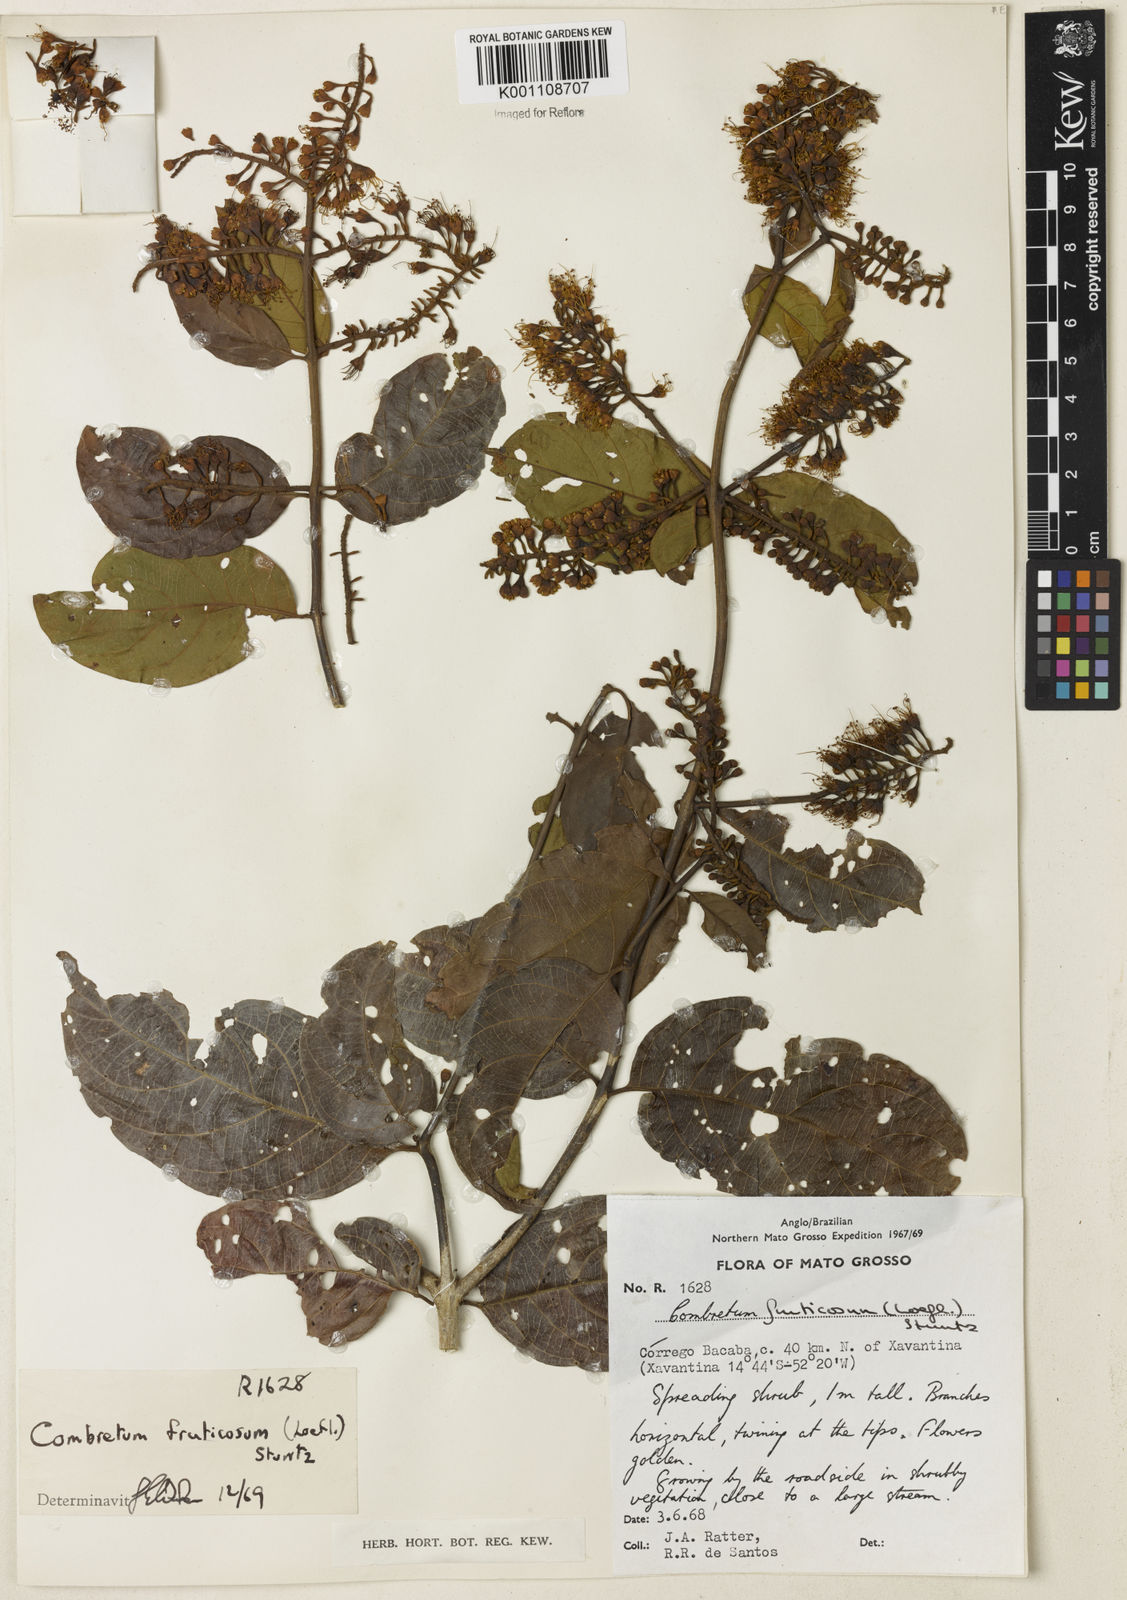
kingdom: Plantae
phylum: Tracheophyta
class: Magnoliopsida
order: Myrtales
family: Combretaceae
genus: Combretum
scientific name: Combretum fruticosum
